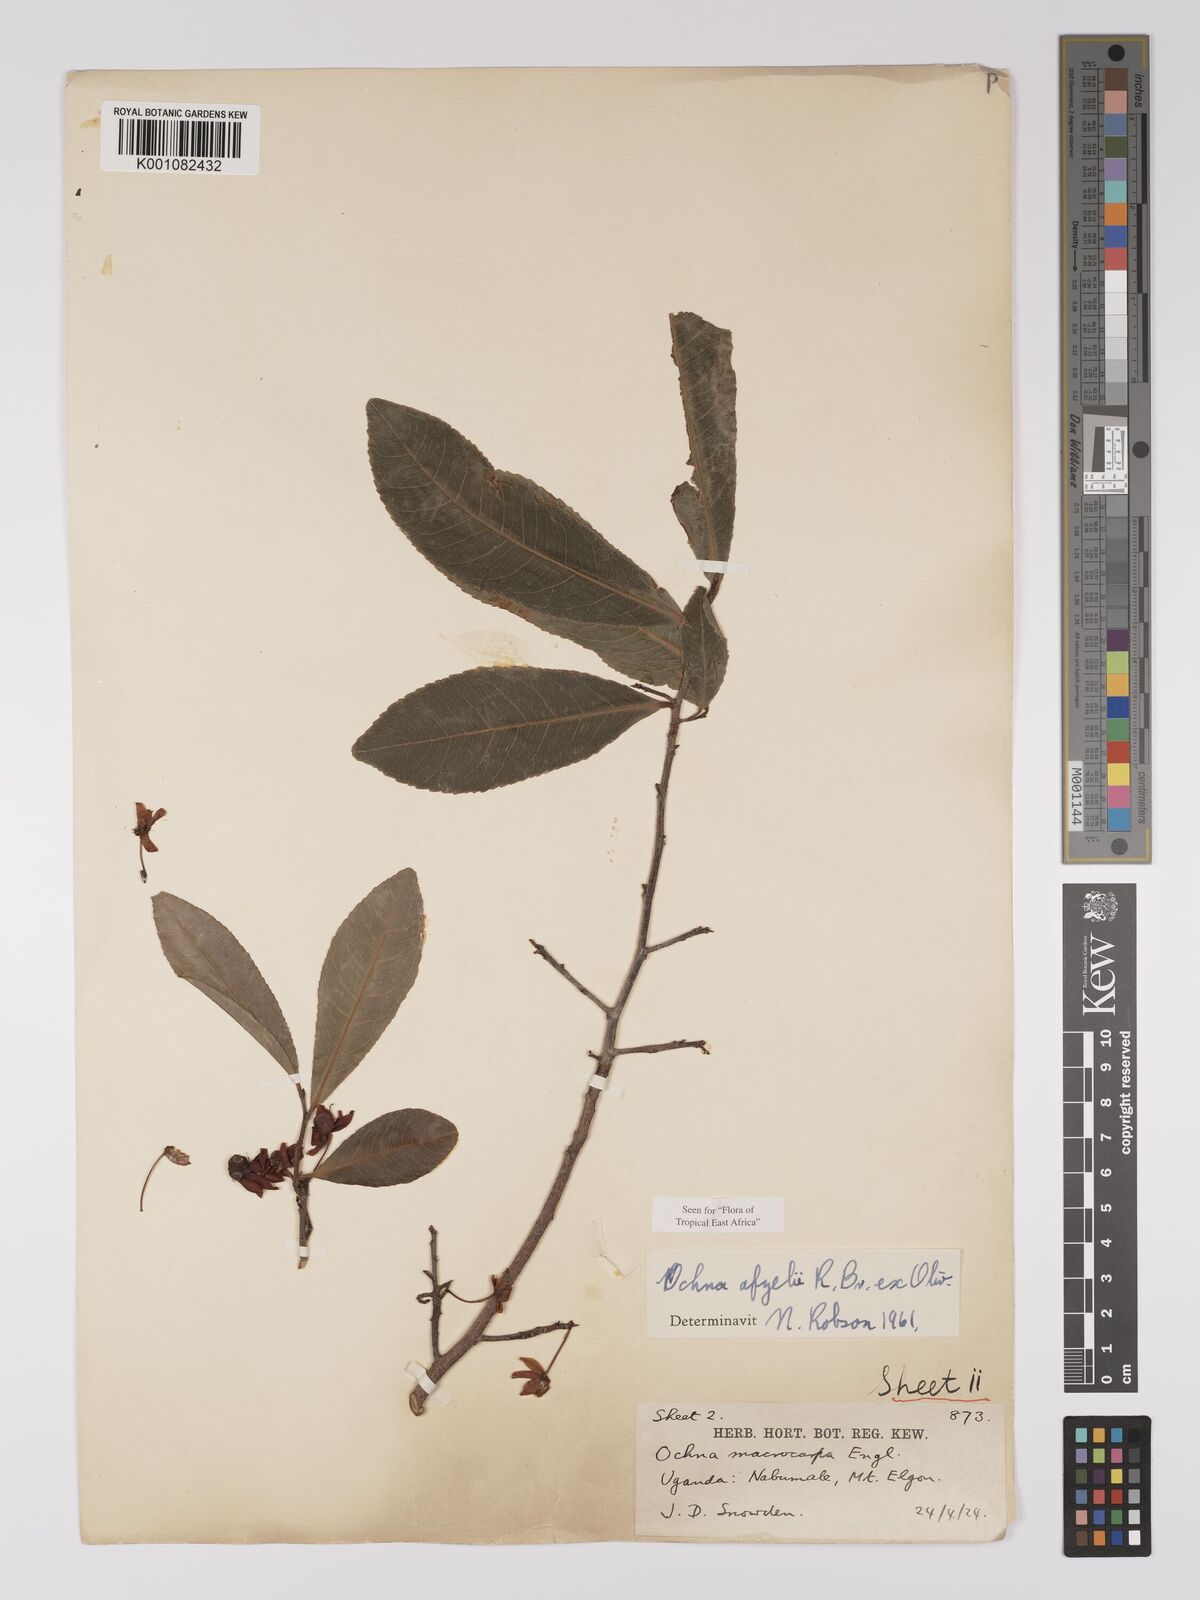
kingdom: Plantae
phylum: Tracheophyta
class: Magnoliopsida
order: Malpighiales
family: Ochnaceae
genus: Ochna
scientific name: Ochna afzelii
